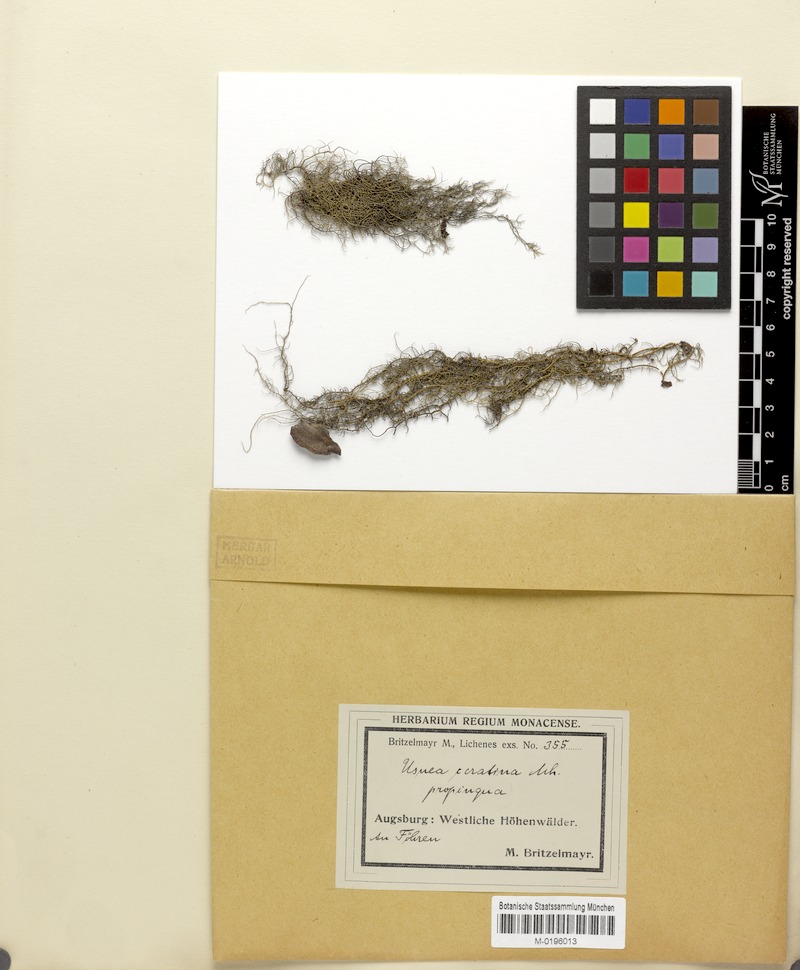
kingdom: Fungi
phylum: Ascomycota
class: Lecanoromycetes
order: Lecanorales
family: Parmeliaceae
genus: Usnea
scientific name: Usnea ceratina
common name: Warty beard lichen
